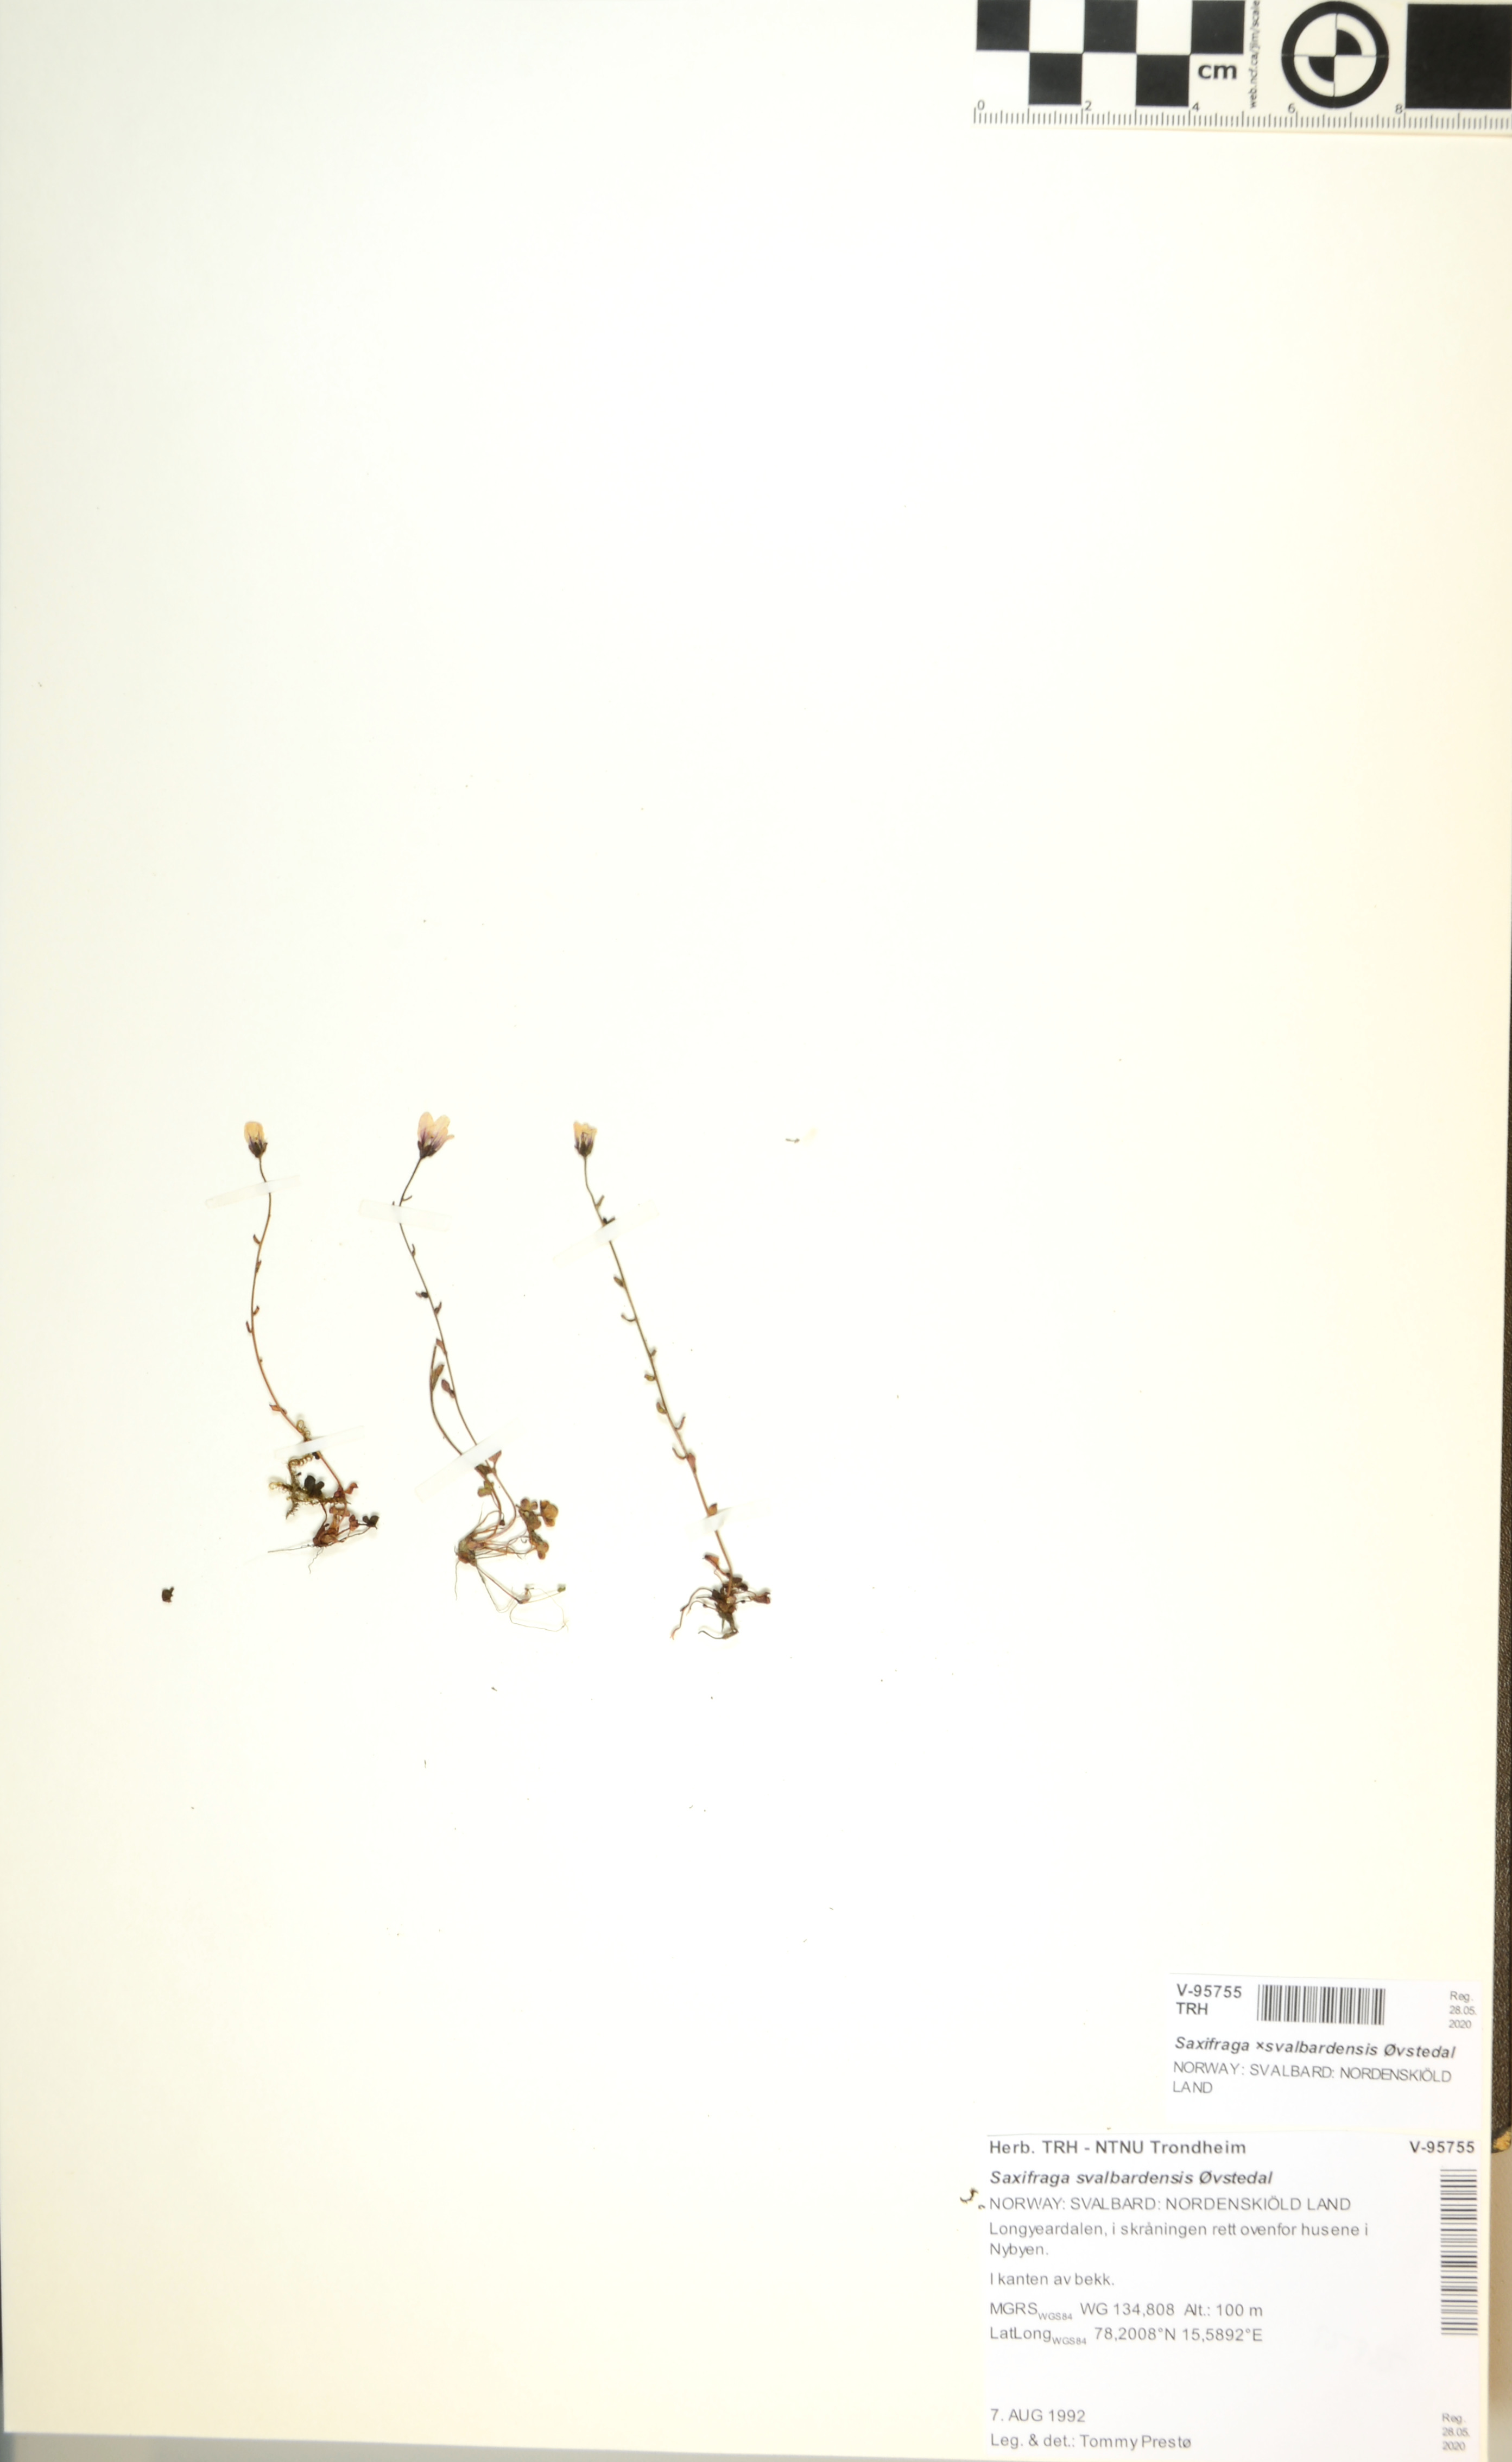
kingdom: Plantae
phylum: Tracheophyta
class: Magnoliopsida
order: Saxifragales
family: Saxifragaceae
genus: Saxifraga
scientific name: Saxifraga svalbardensis
